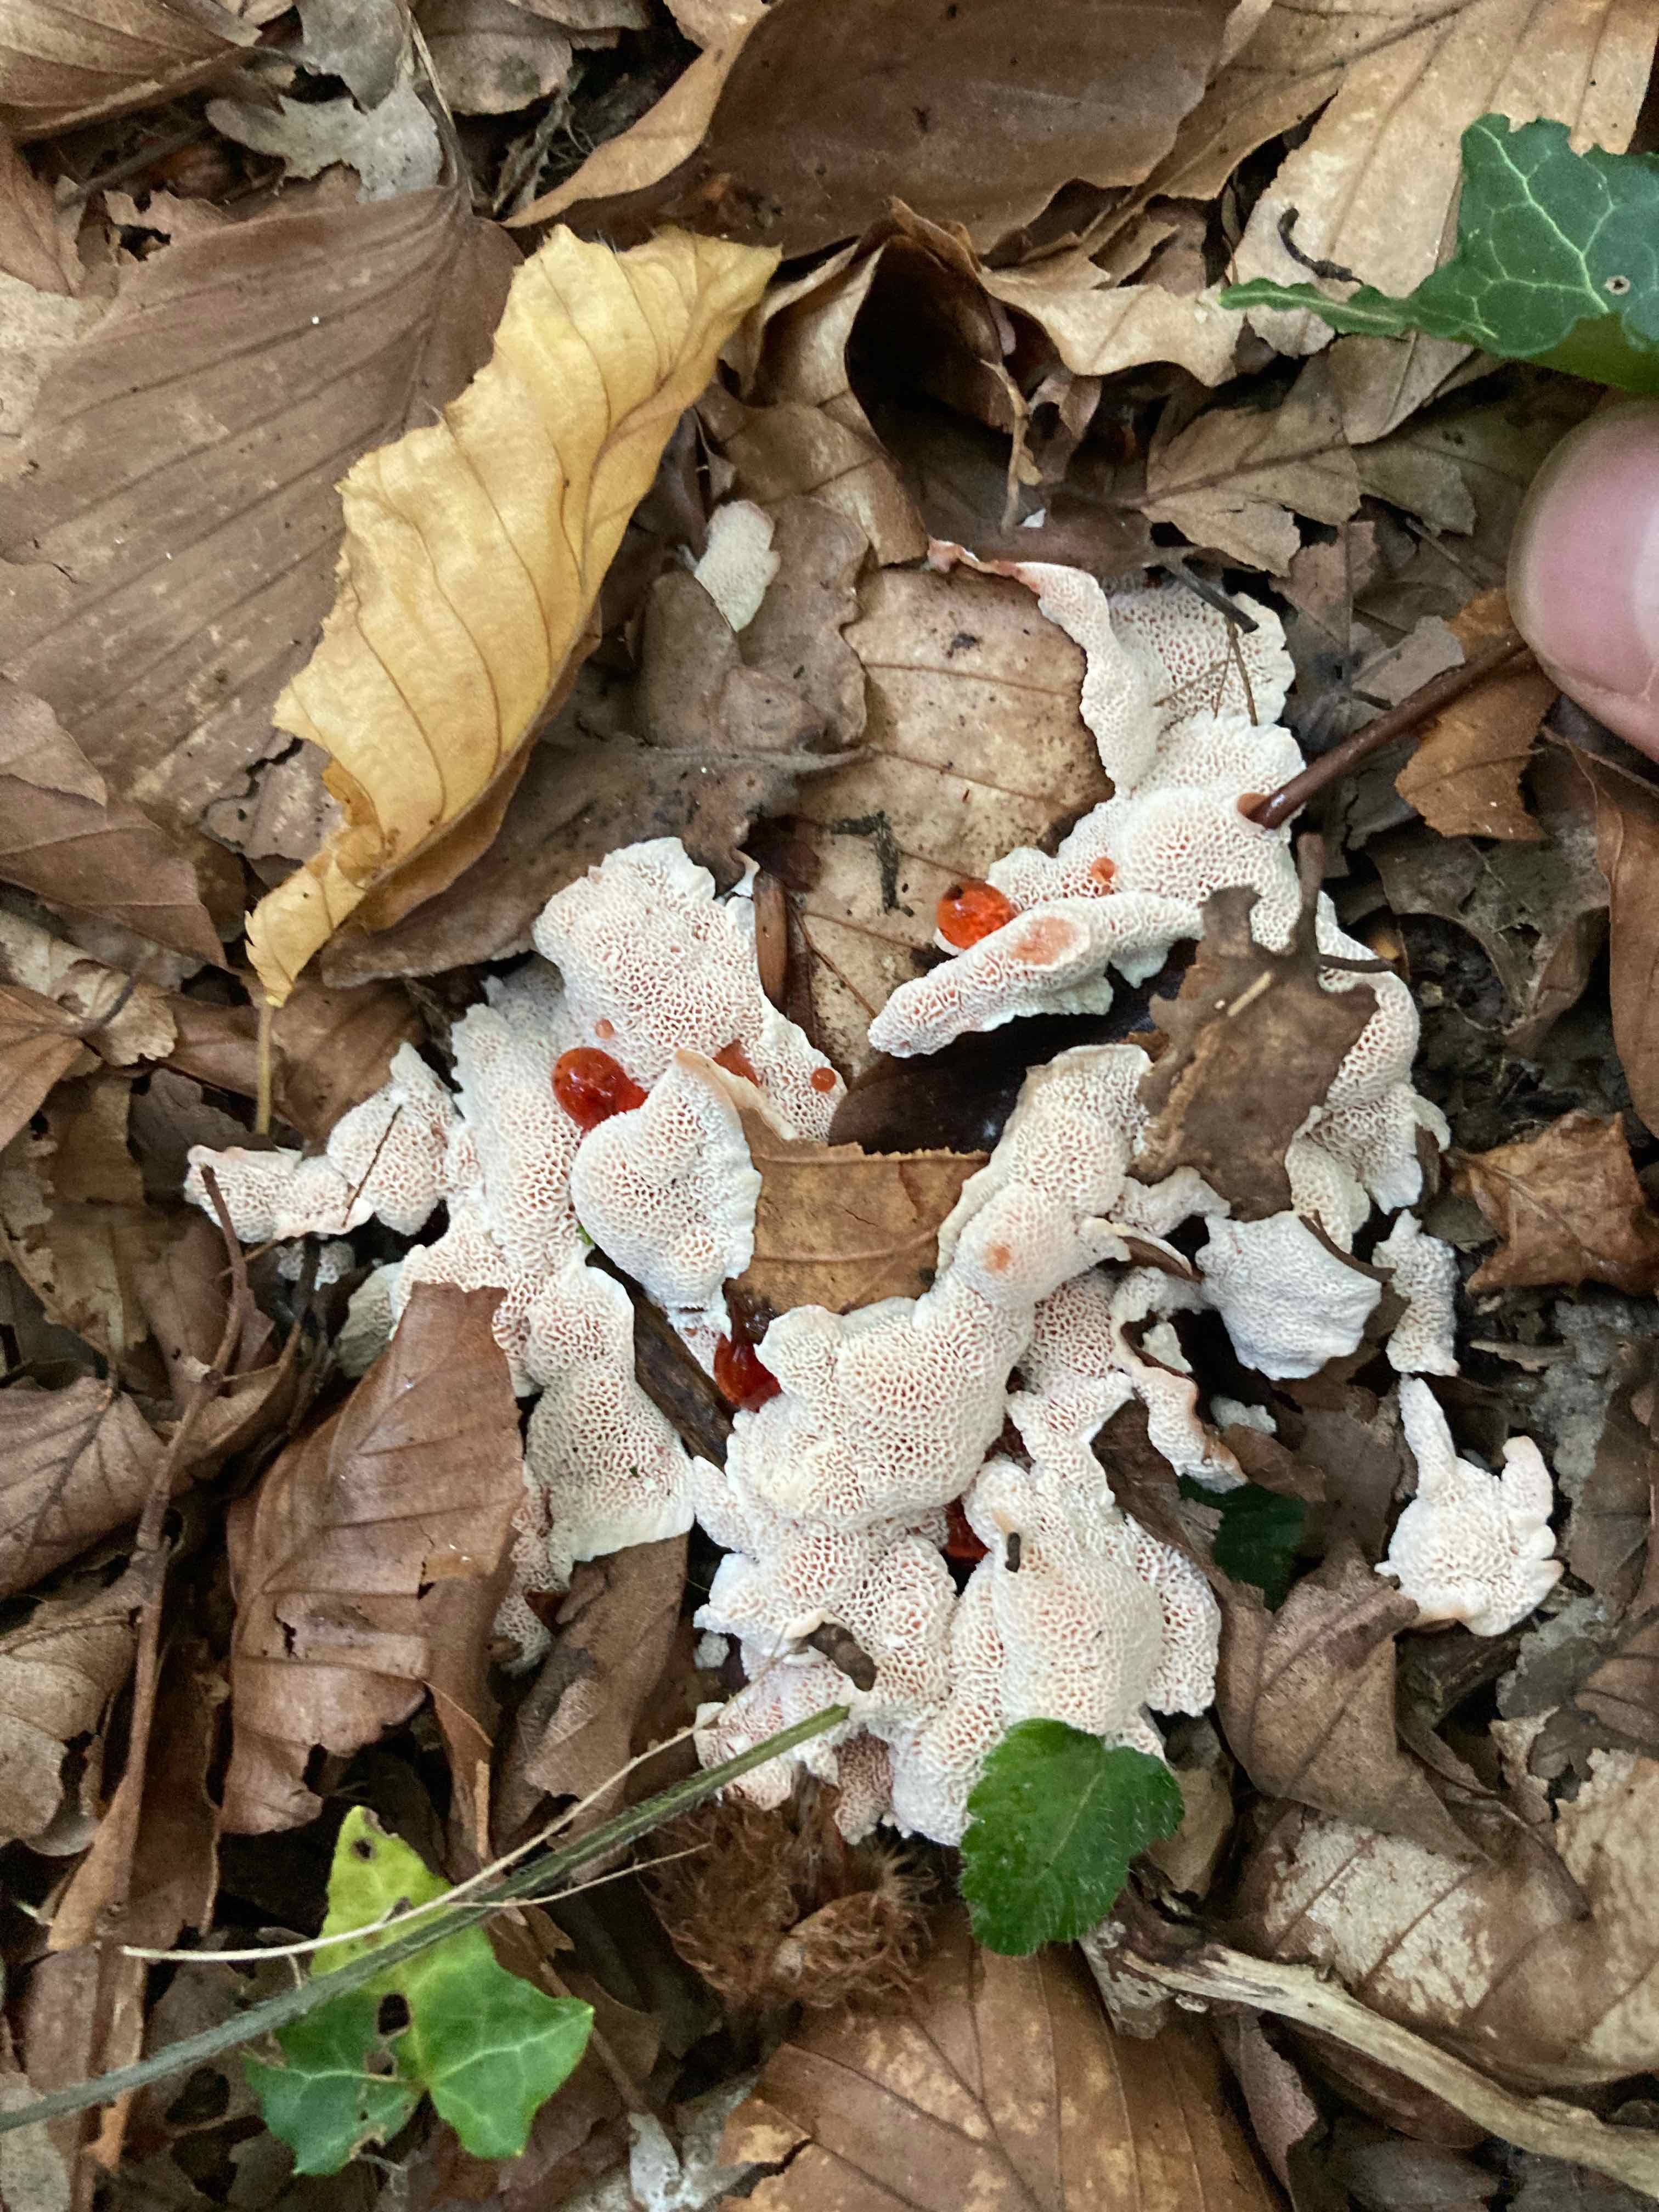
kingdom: Fungi
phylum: Basidiomycota
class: Agaricomycetes
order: Polyporales
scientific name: Polyporales
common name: poresvampordenen
